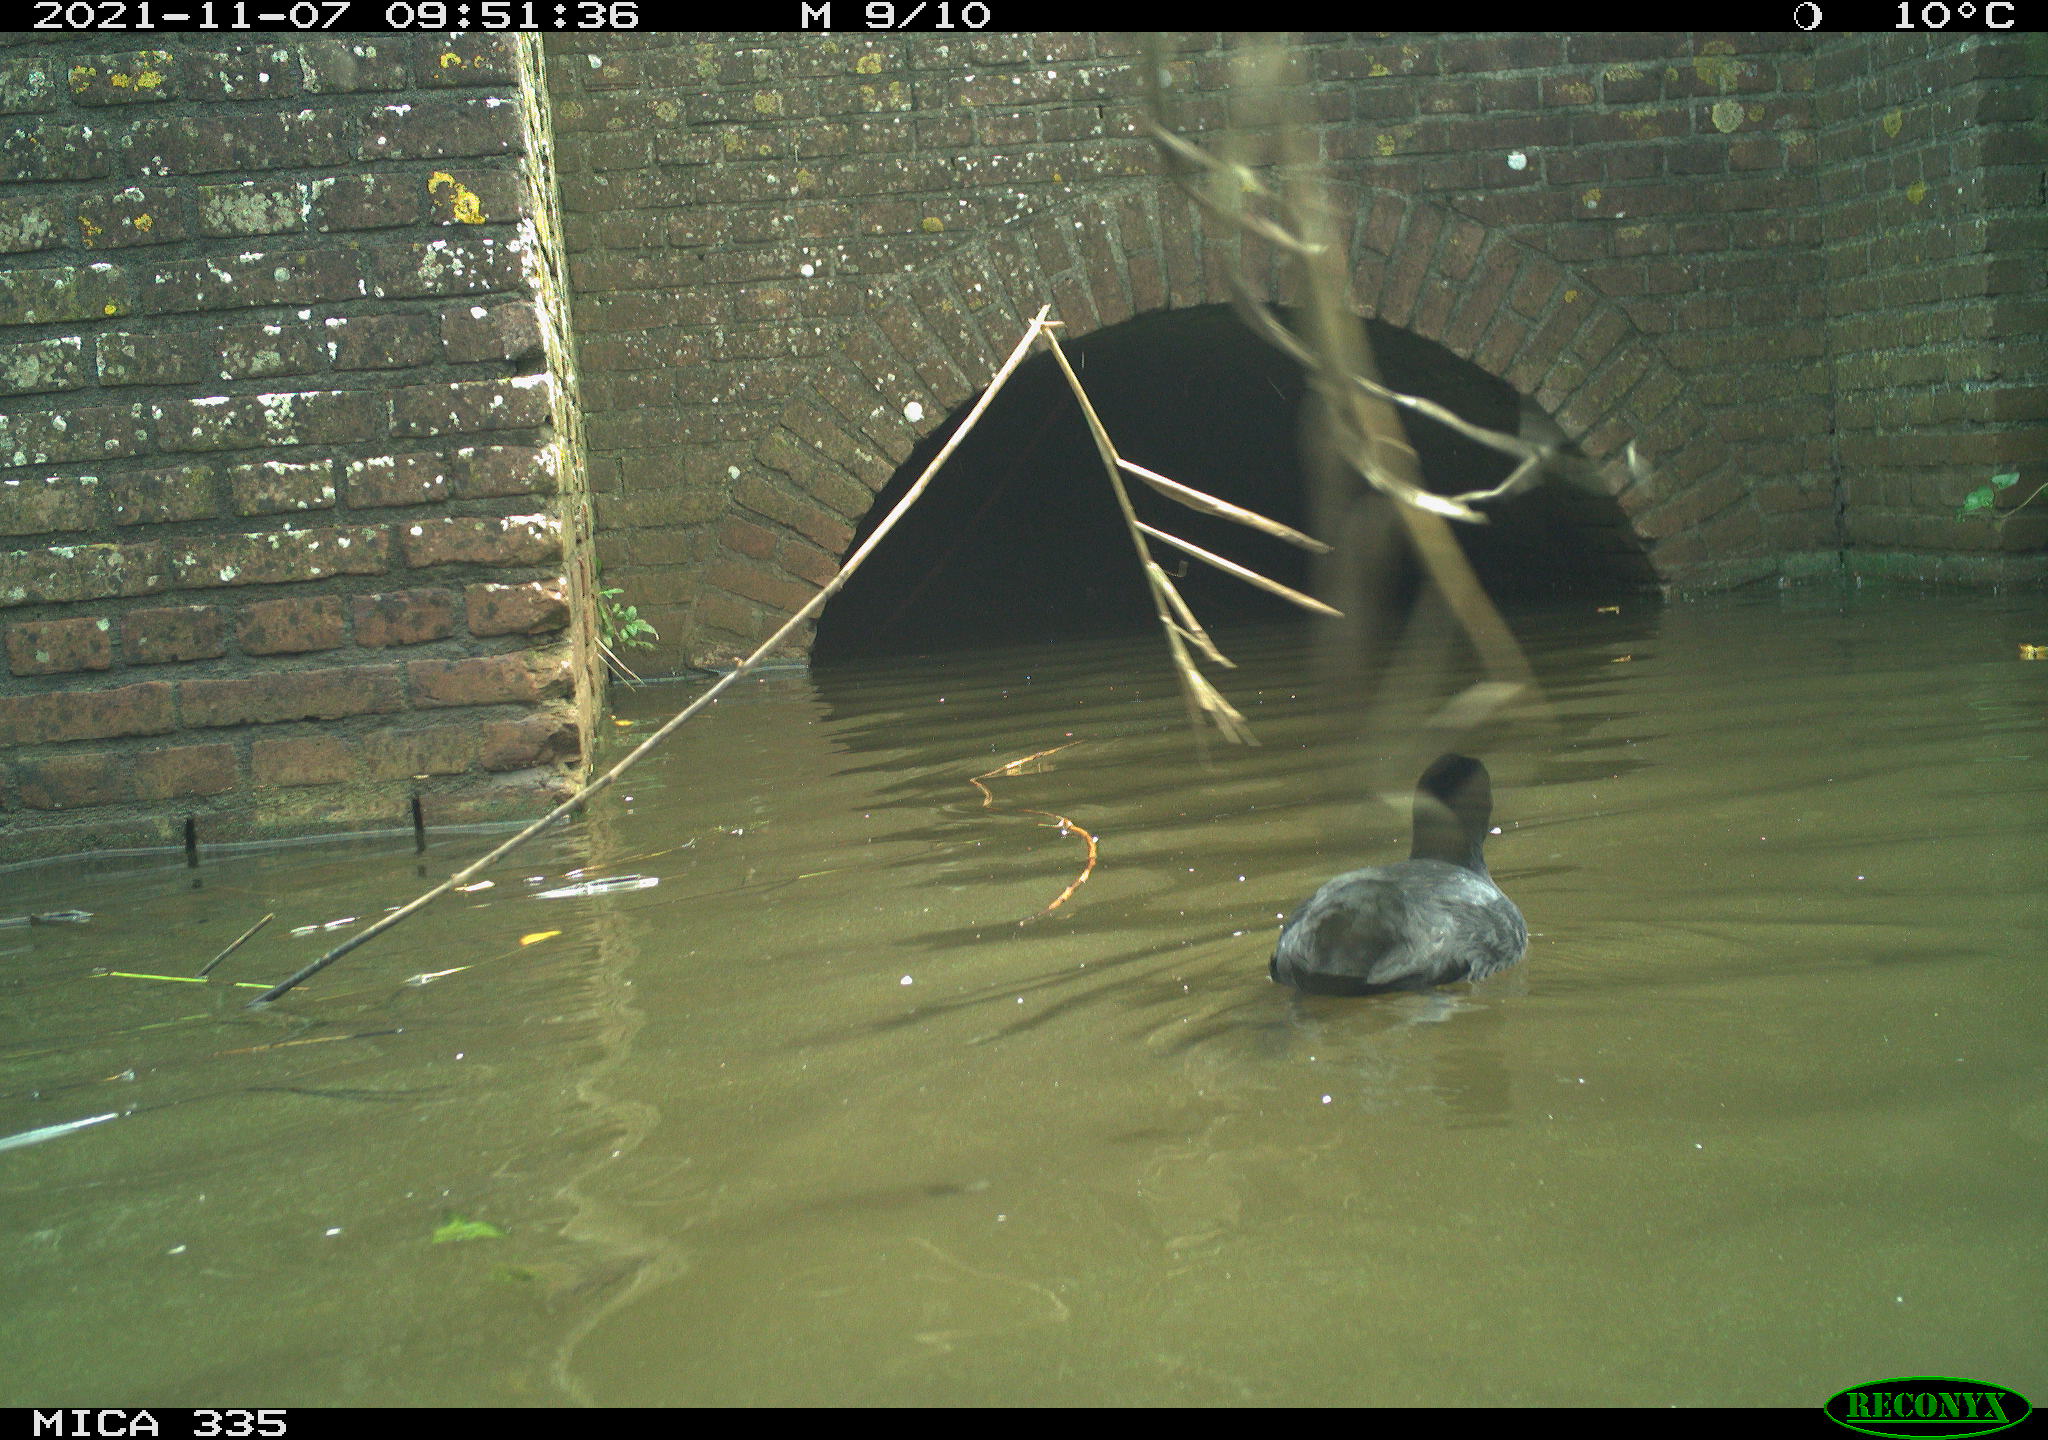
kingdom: Animalia
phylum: Chordata
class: Aves
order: Gruiformes
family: Rallidae
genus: Fulica
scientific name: Fulica atra
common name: Eurasian coot
